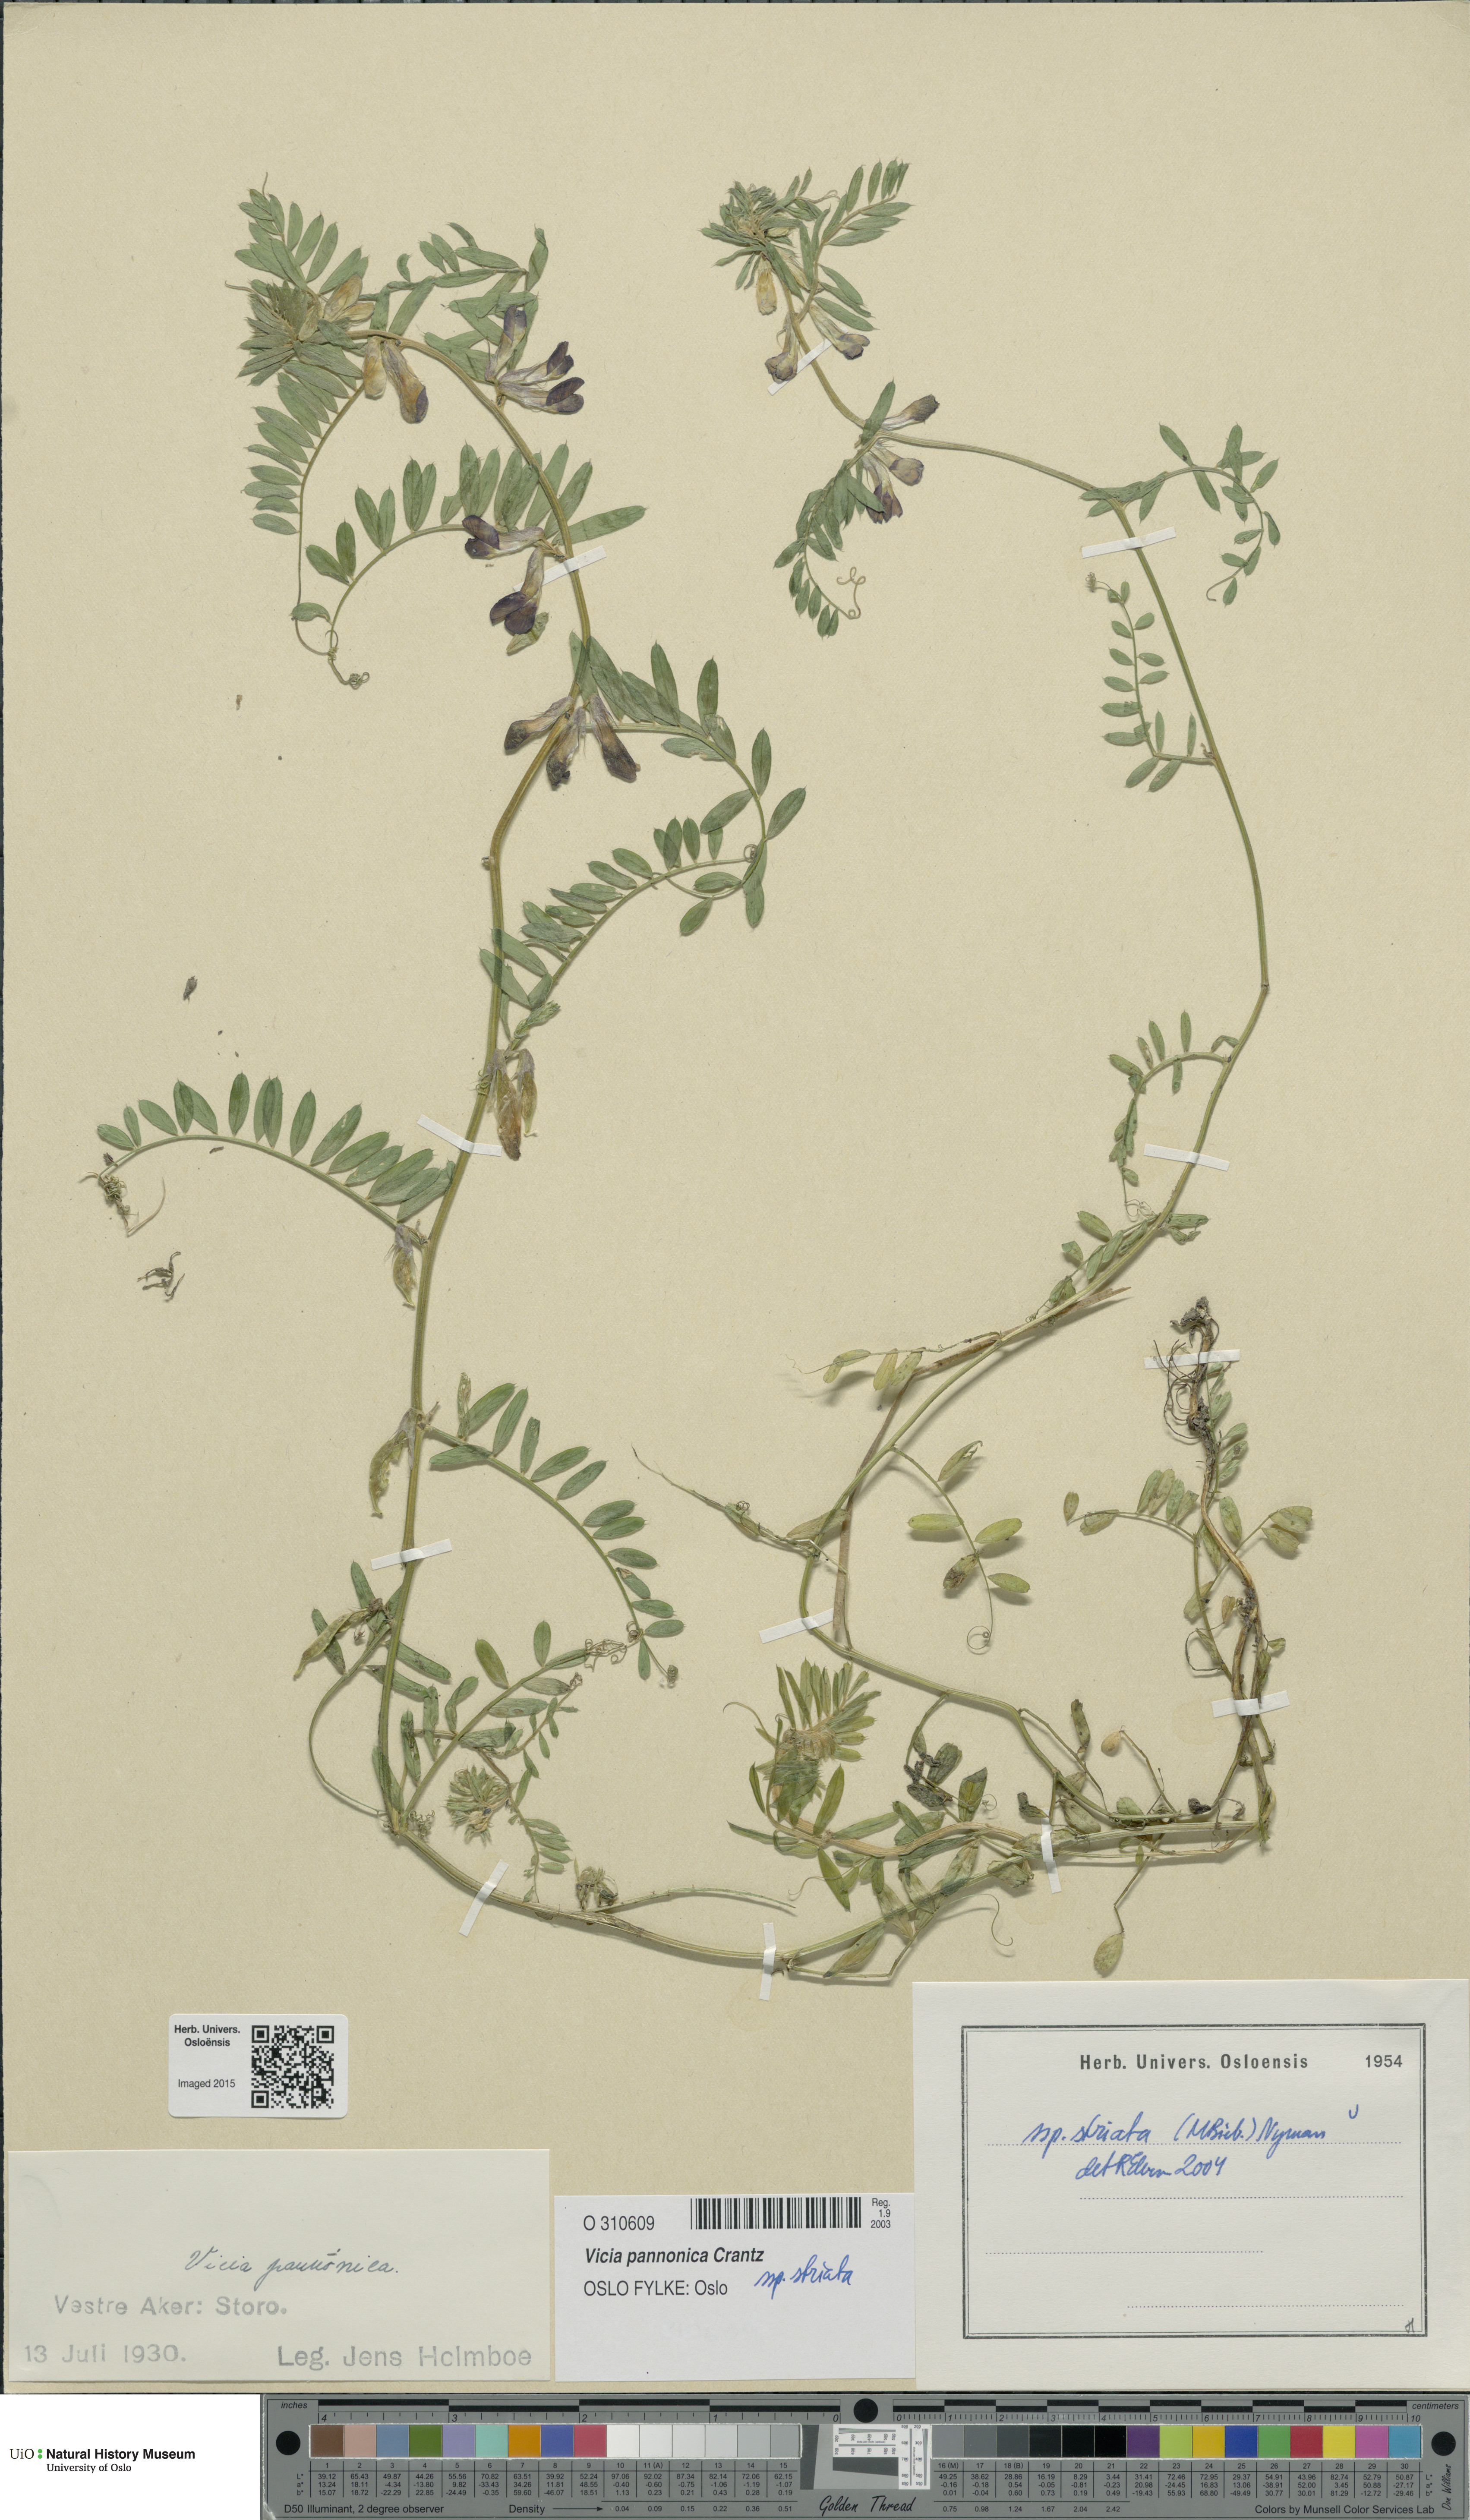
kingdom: Plantae
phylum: Tracheophyta
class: Magnoliopsida
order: Fabales
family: Fabaceae
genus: Vicia
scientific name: Vicia pannonica
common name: Hungarian vetch
